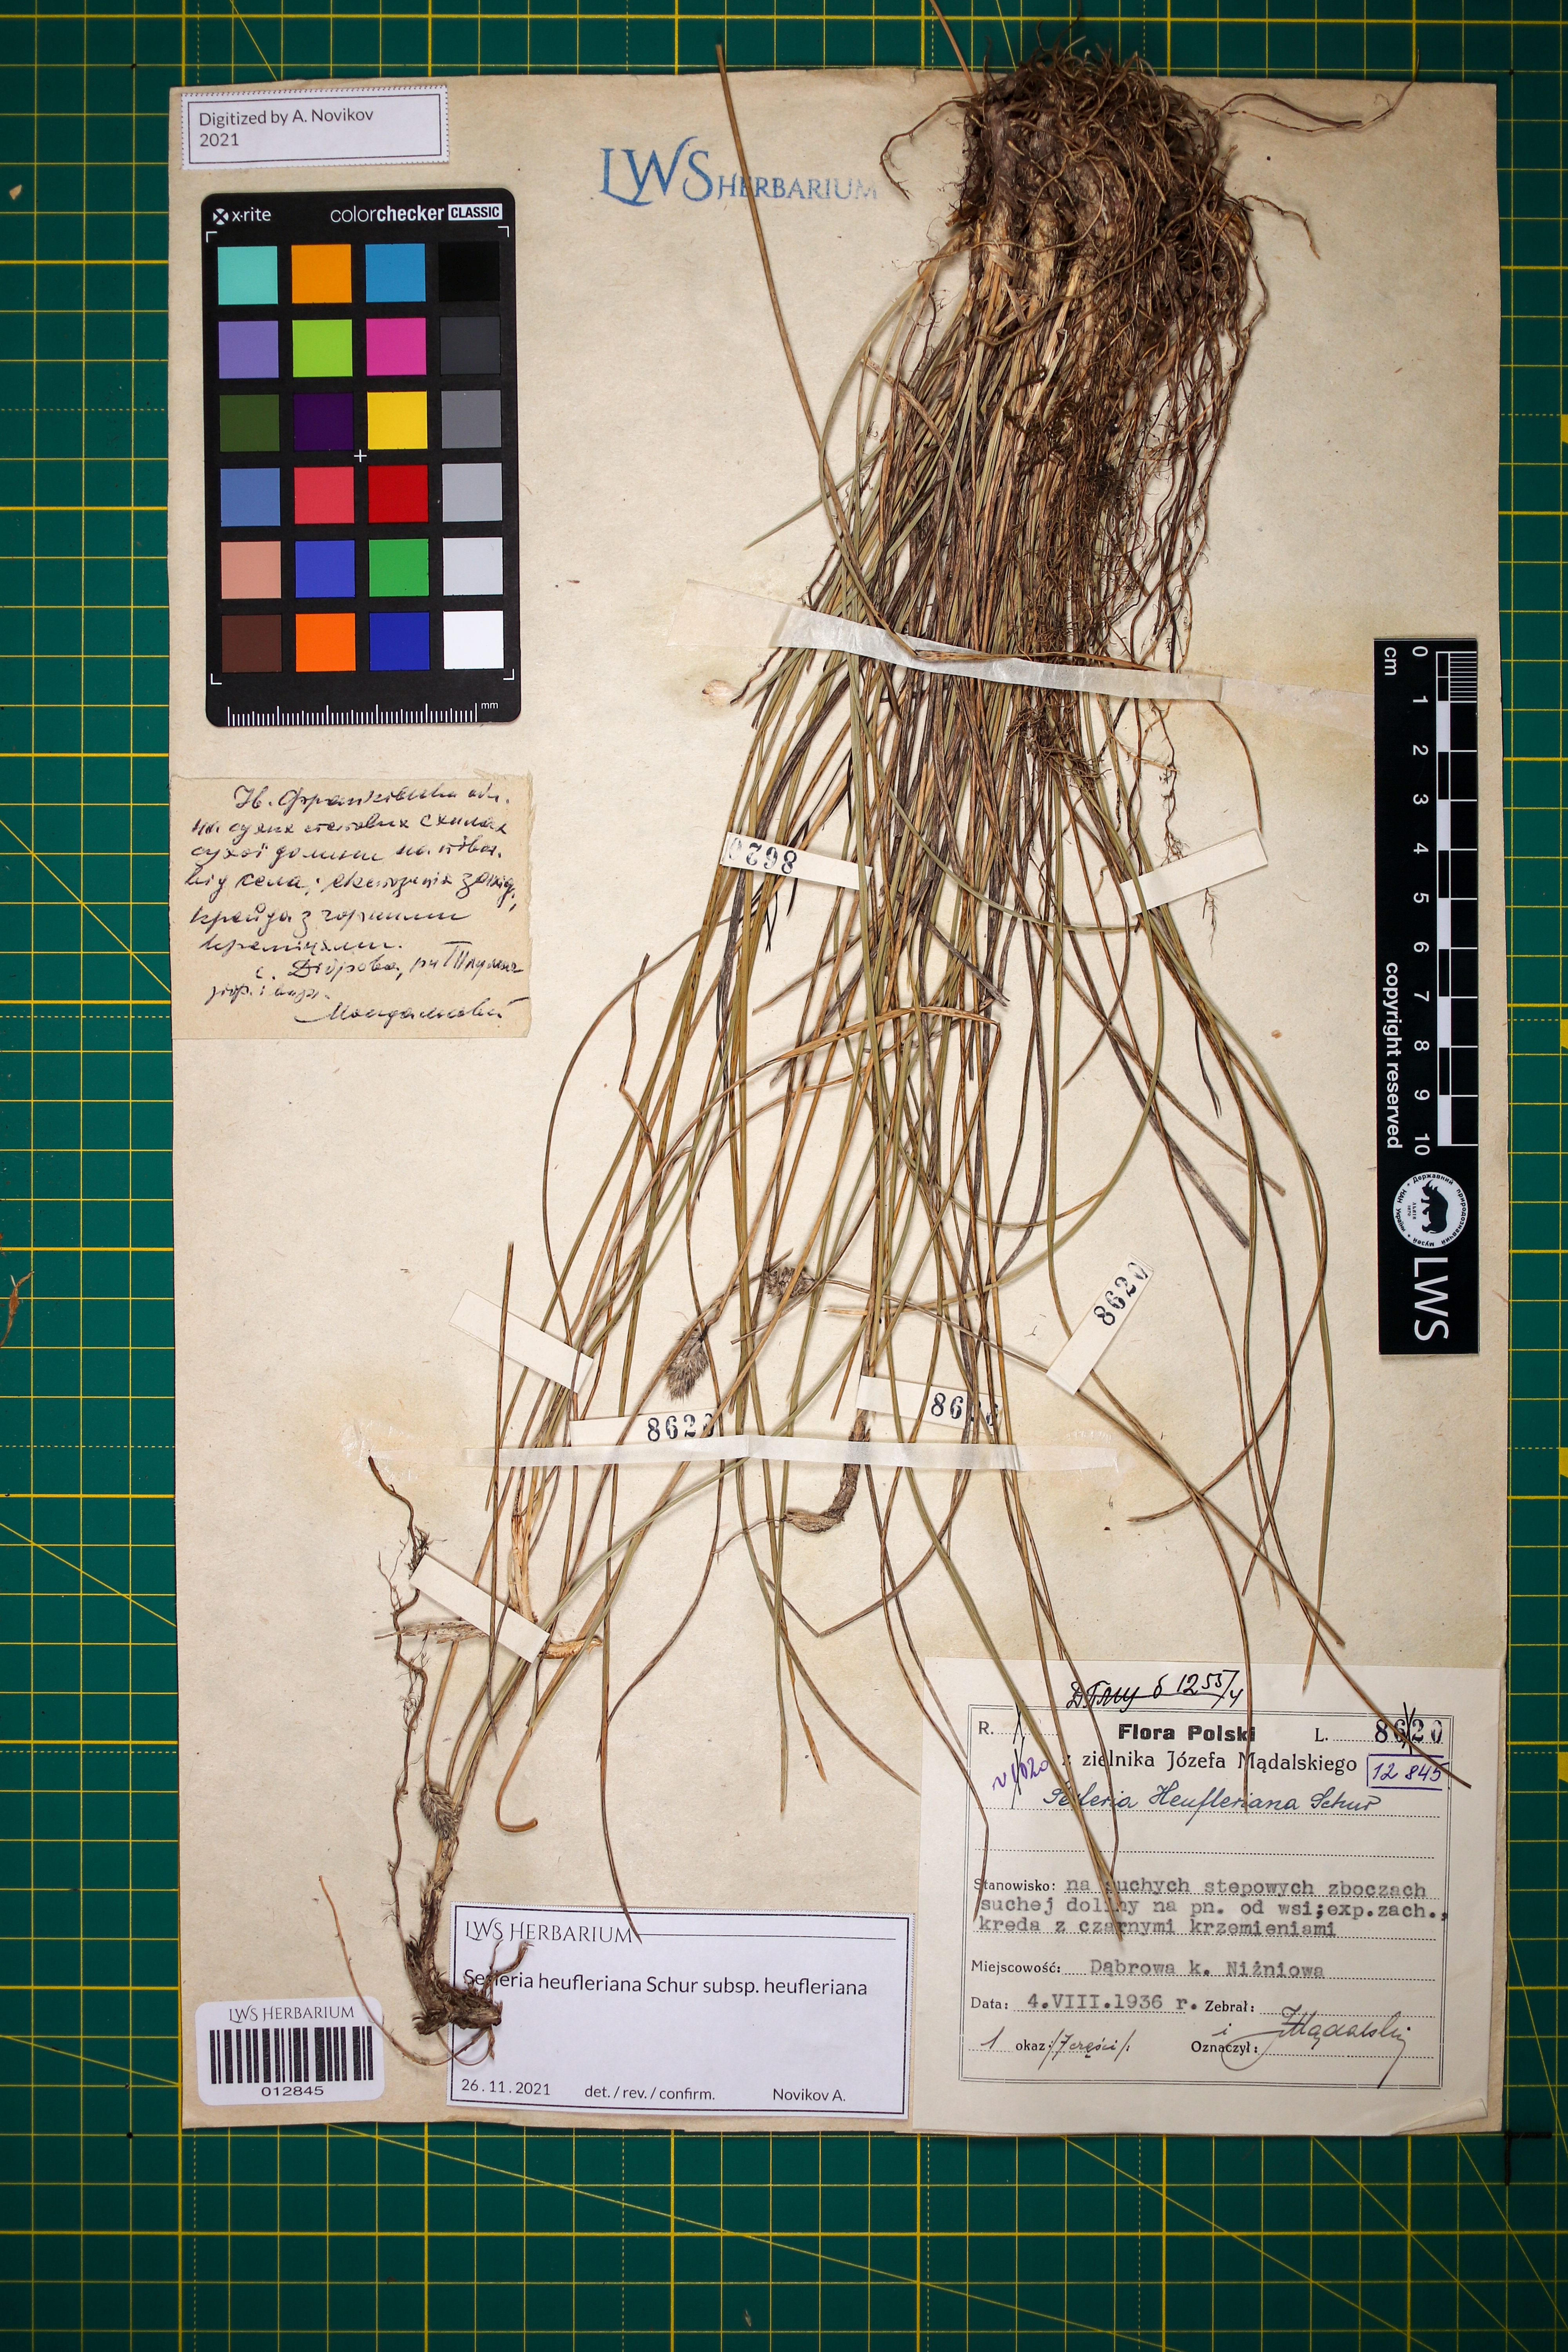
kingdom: Plantae
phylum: Tracheophyta
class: Liliopsida
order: Poales
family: Poaceae
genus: Sesleria
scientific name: Sesleria heufleriana
